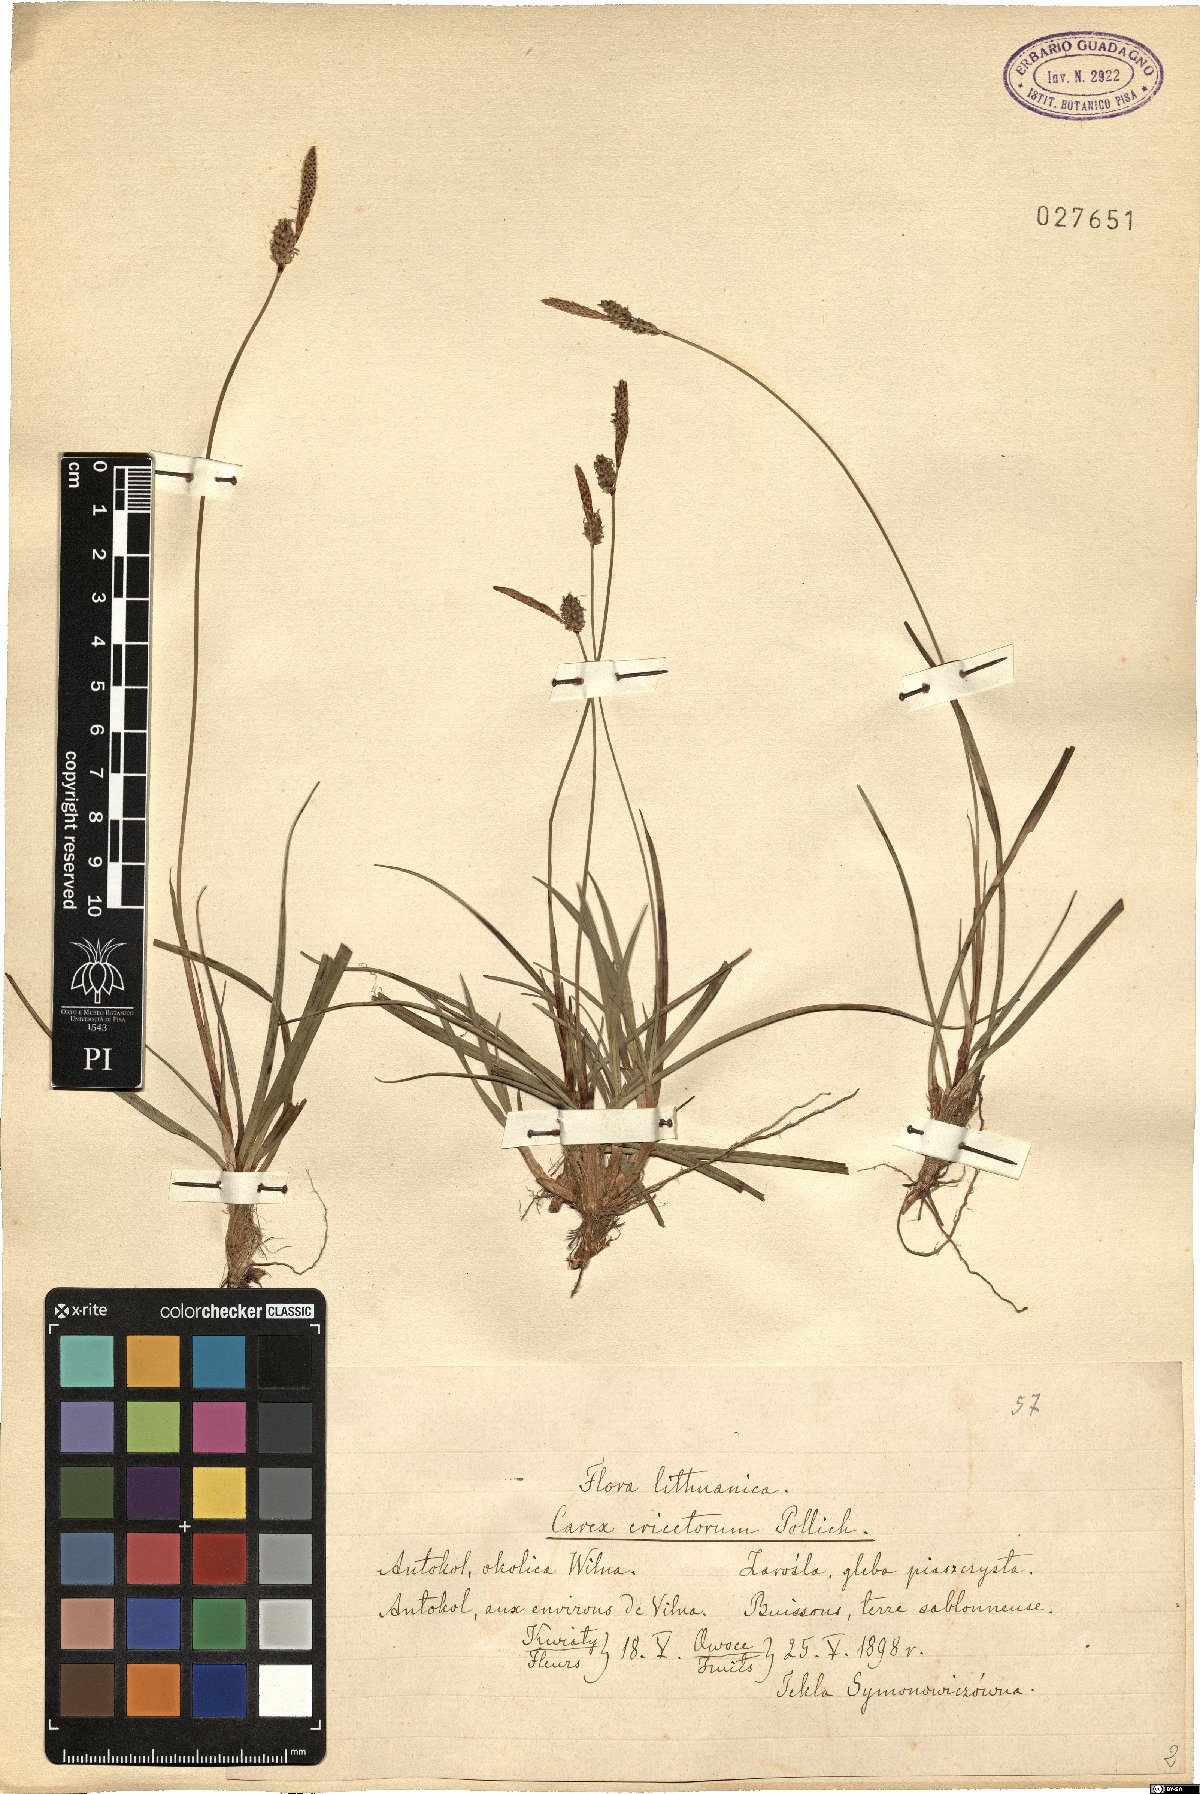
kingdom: Plantae
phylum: Tracheophyta
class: Liliopsida
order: Poales
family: Cyperaceae
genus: Carex
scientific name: Carex ericetorum
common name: Rare spring-sedge
